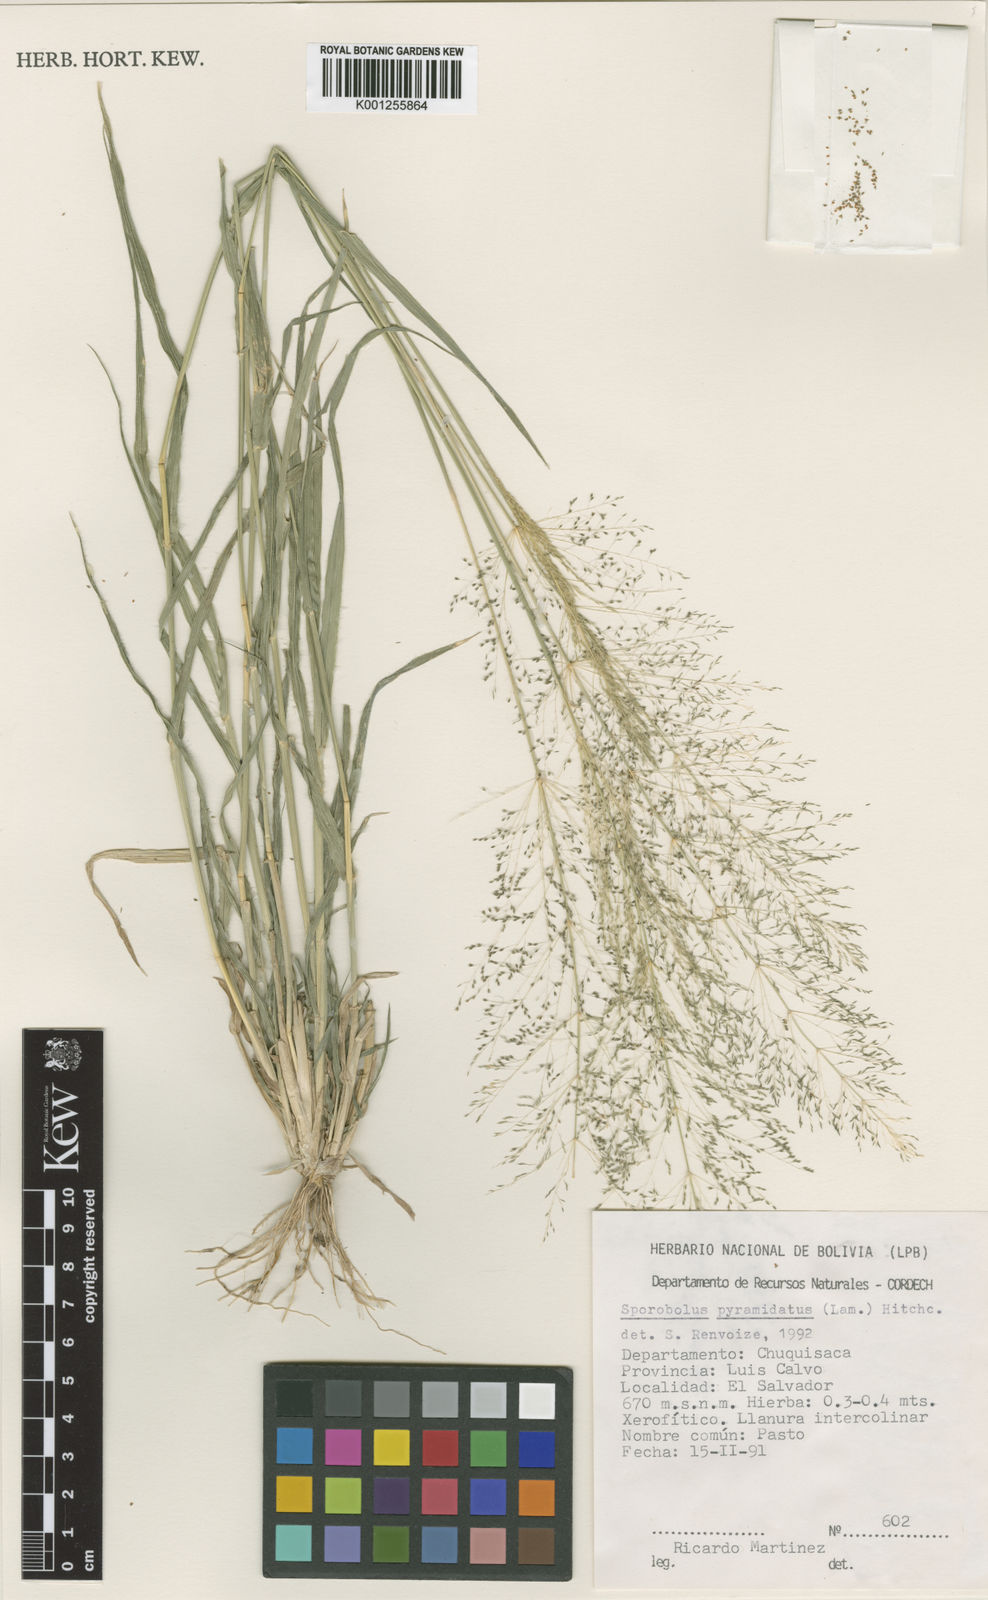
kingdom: Plantae
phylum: Tracheophyta
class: Liliopsida
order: Poales
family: Poaceae
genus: Sporobolus
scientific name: Sporobolus pyramidatus
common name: Whorled dropseed
